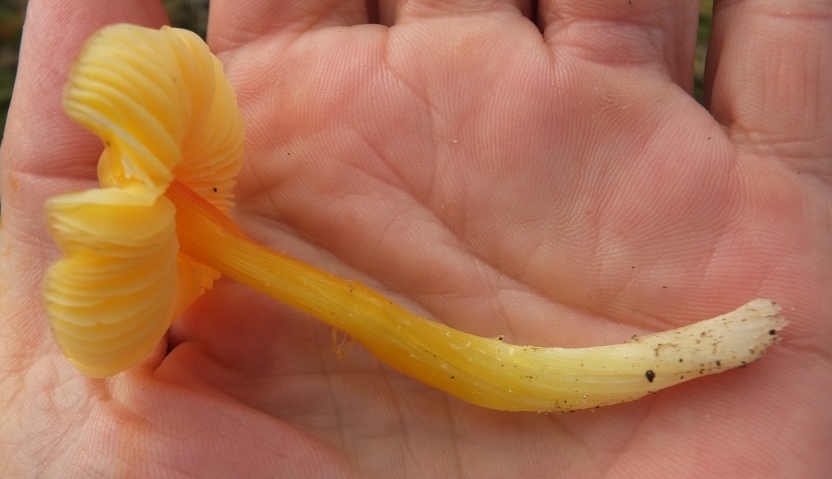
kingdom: Fungi
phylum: Basidiomycota
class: Agaricomycetes
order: Agaricales
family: Hygrophoraceae
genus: Hygrocybe
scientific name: Hygrocybe chlorophana
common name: gul vokshat
